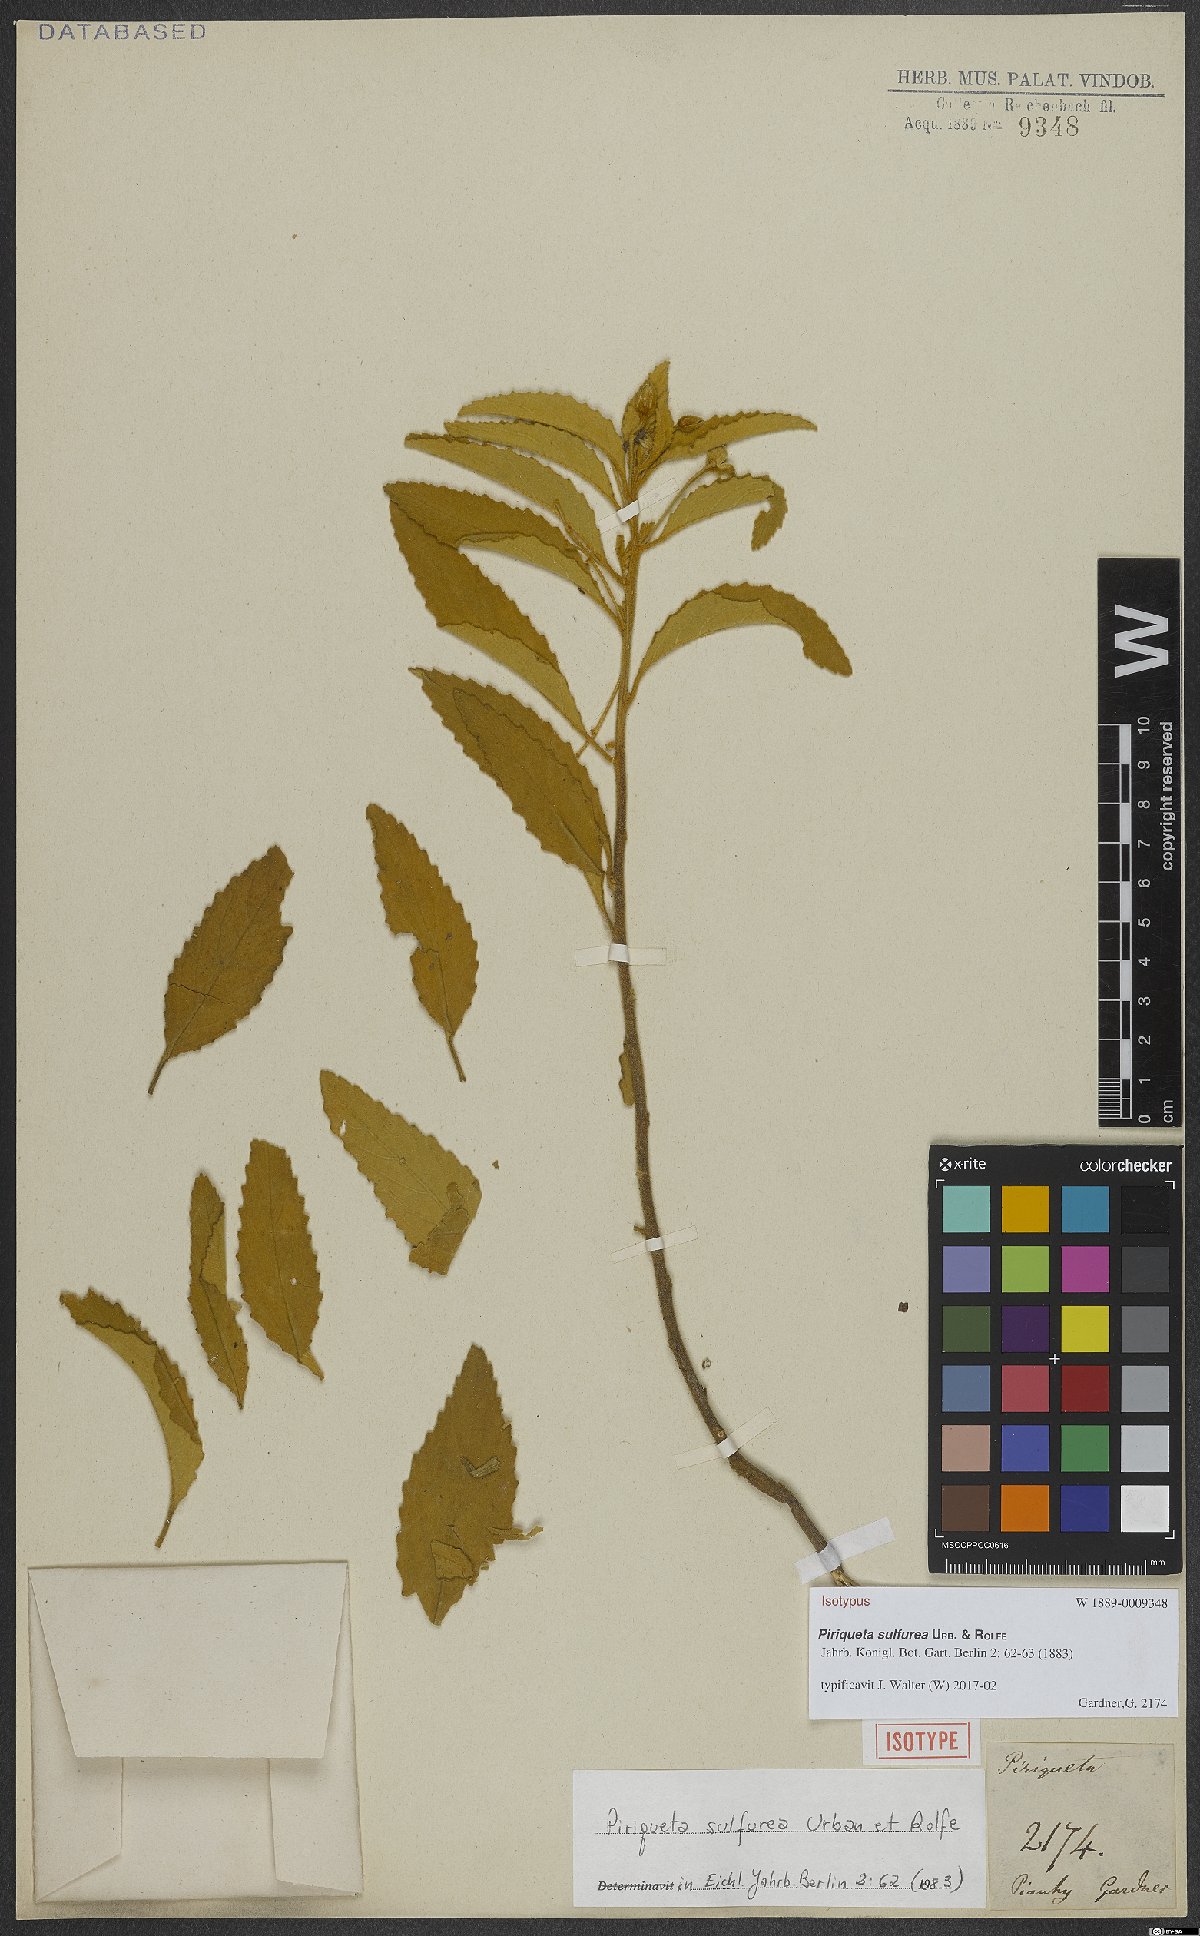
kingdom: Plantae
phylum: Tracheophyta
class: Magnoliopsida
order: Malpighiales
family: Turneraceae
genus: Piriqueta
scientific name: Piriqueta sulfurea
